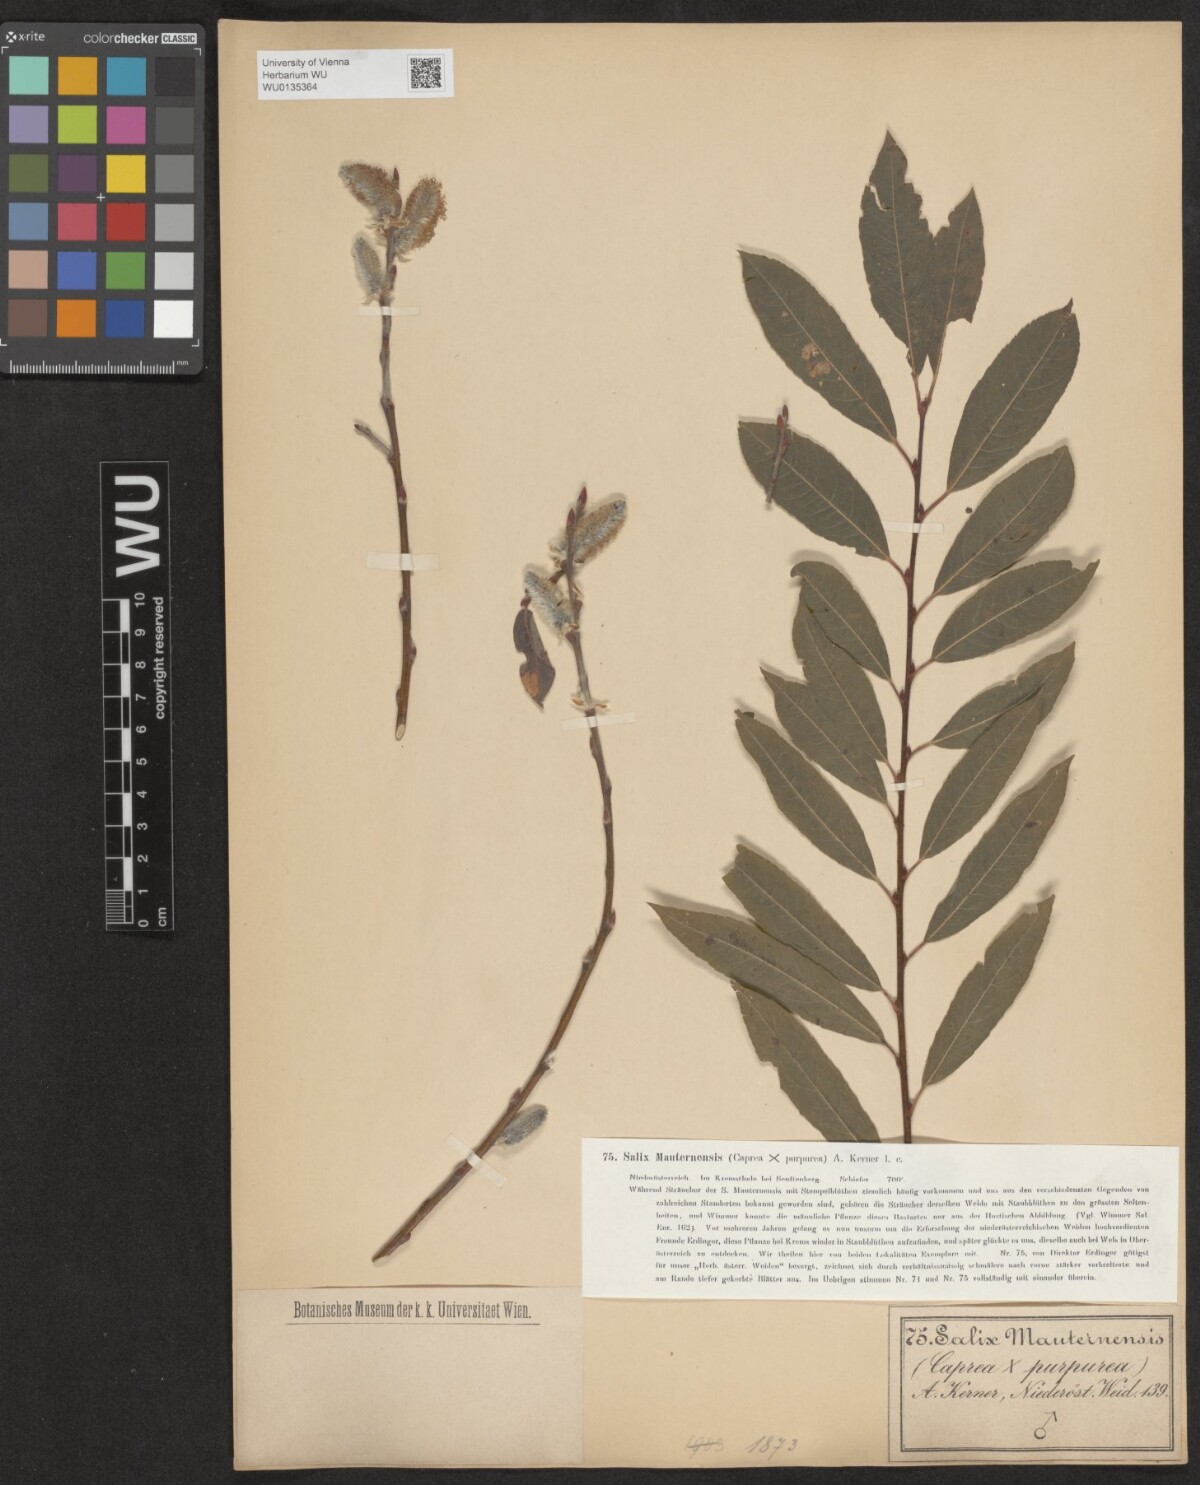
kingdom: Plantae
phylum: Tracheophyta
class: Magnoliopsida
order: Malpighiales
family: Salicaceae
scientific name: Salicaceae
